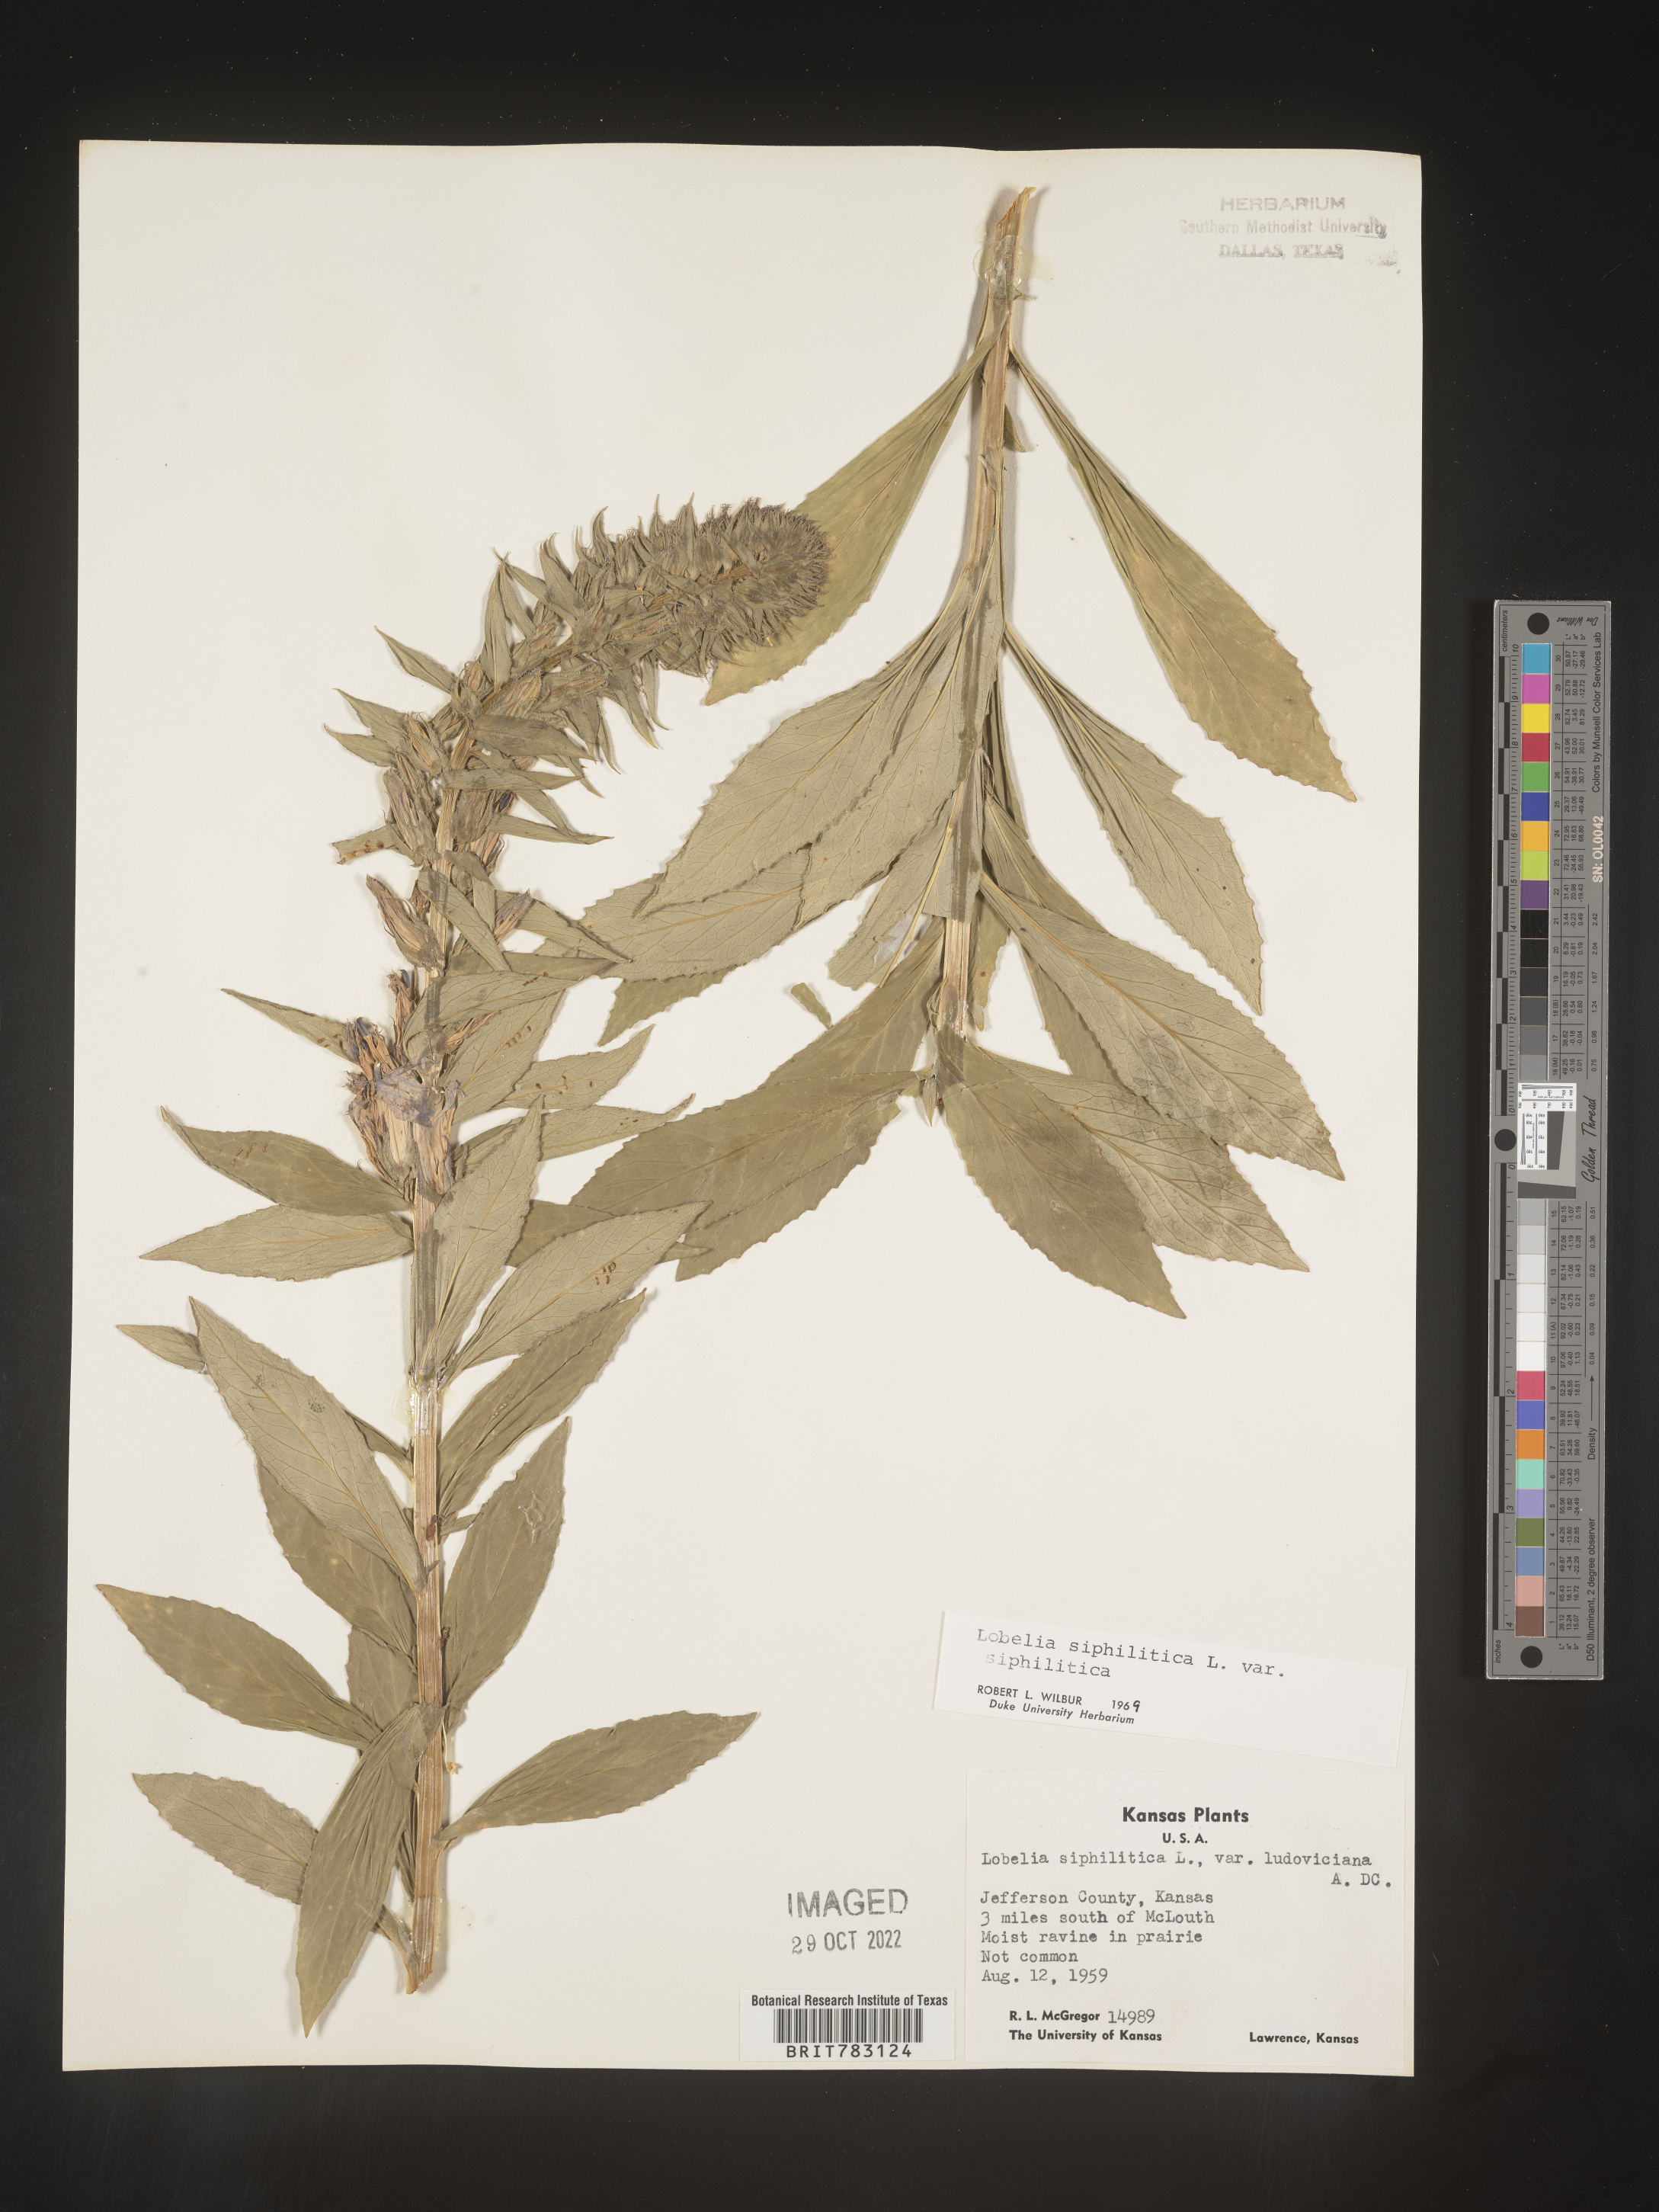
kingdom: Plantae
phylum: Tracheophyta
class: Magnoliopsida
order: Asterales
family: Campanulaceae
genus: Lobelia
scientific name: Lobelia siphilitica
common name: Great lobelia
